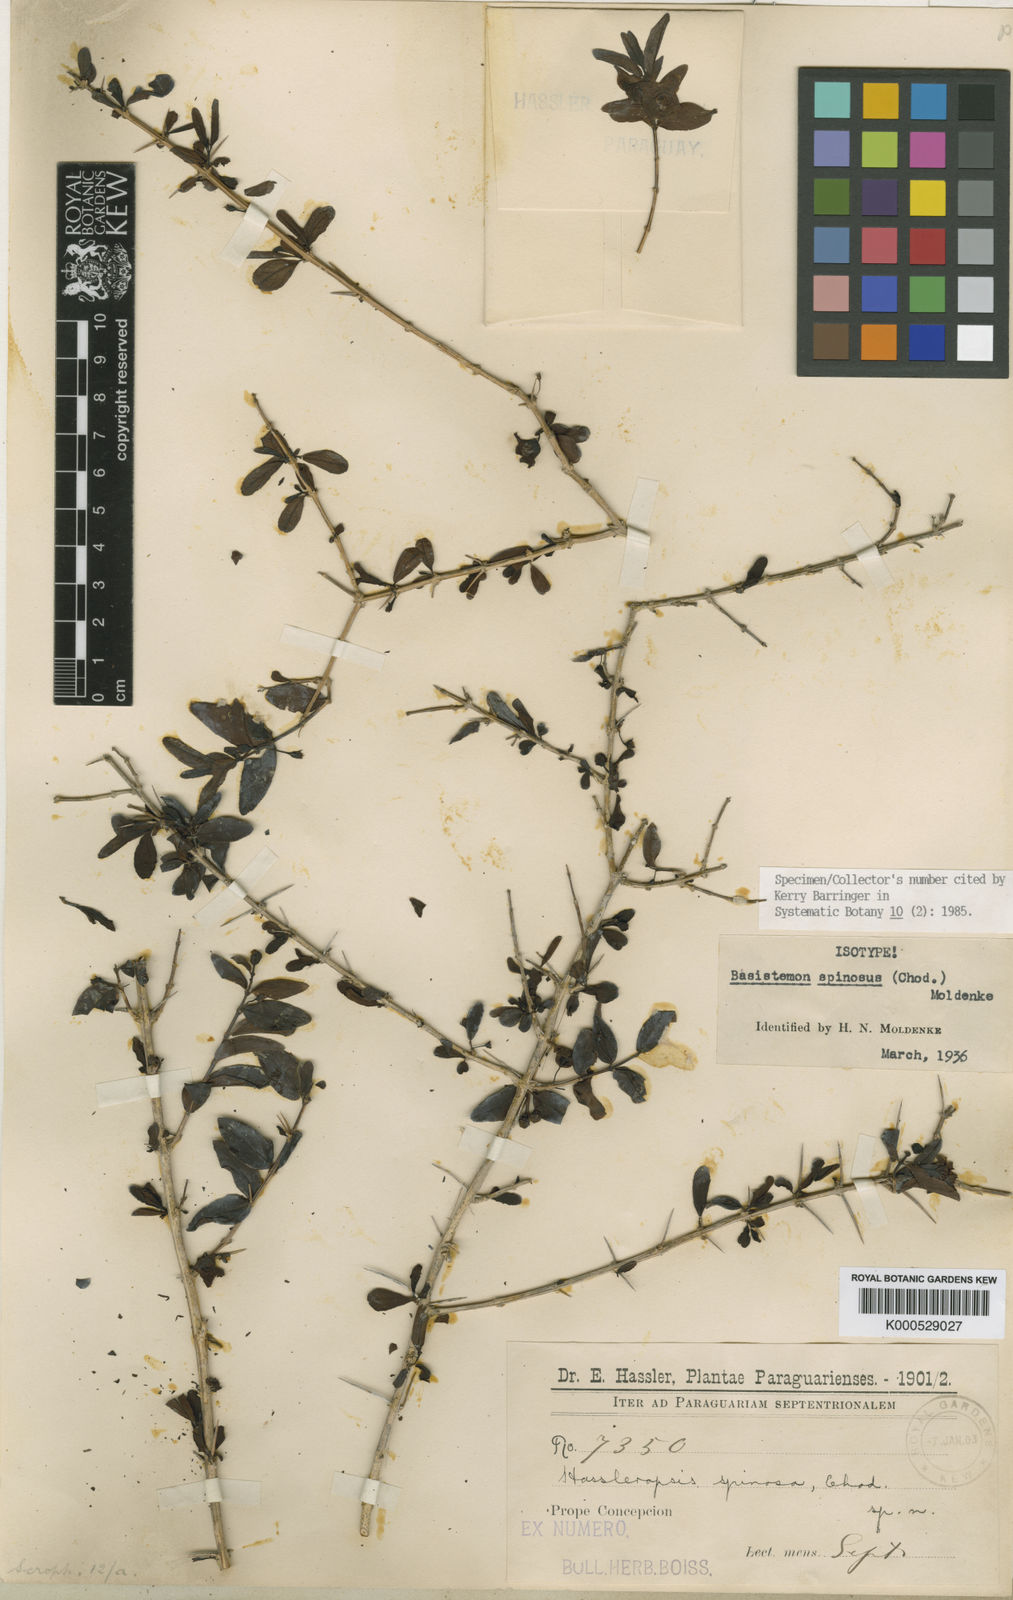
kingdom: Plantae
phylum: Tracheophyta
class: Magnoliopsida
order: Lamiales
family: Plantaginaceae
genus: Basistemon
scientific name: Basistemon spinosus
